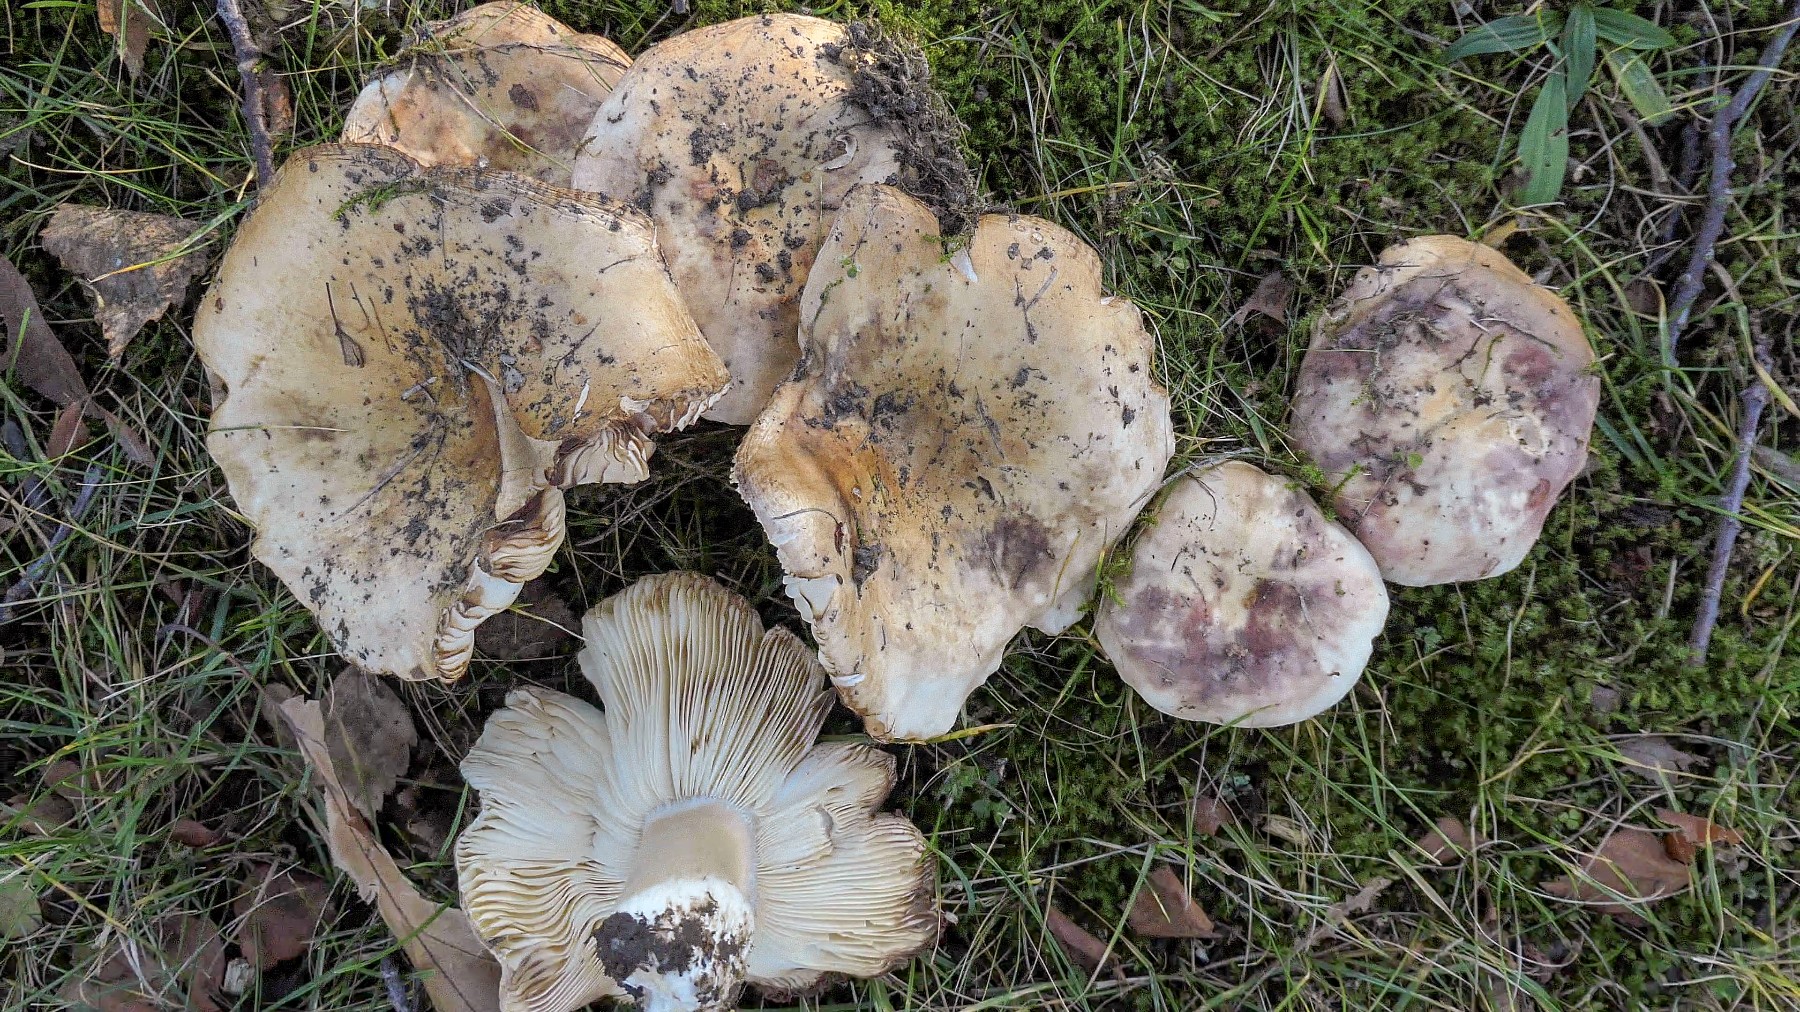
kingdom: Fungi
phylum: Basidiomycota
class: Agaricomycetes
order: Russulales
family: Russulaceae
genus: Russula
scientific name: Russula atropurpurea
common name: purpurbroget skørhat
